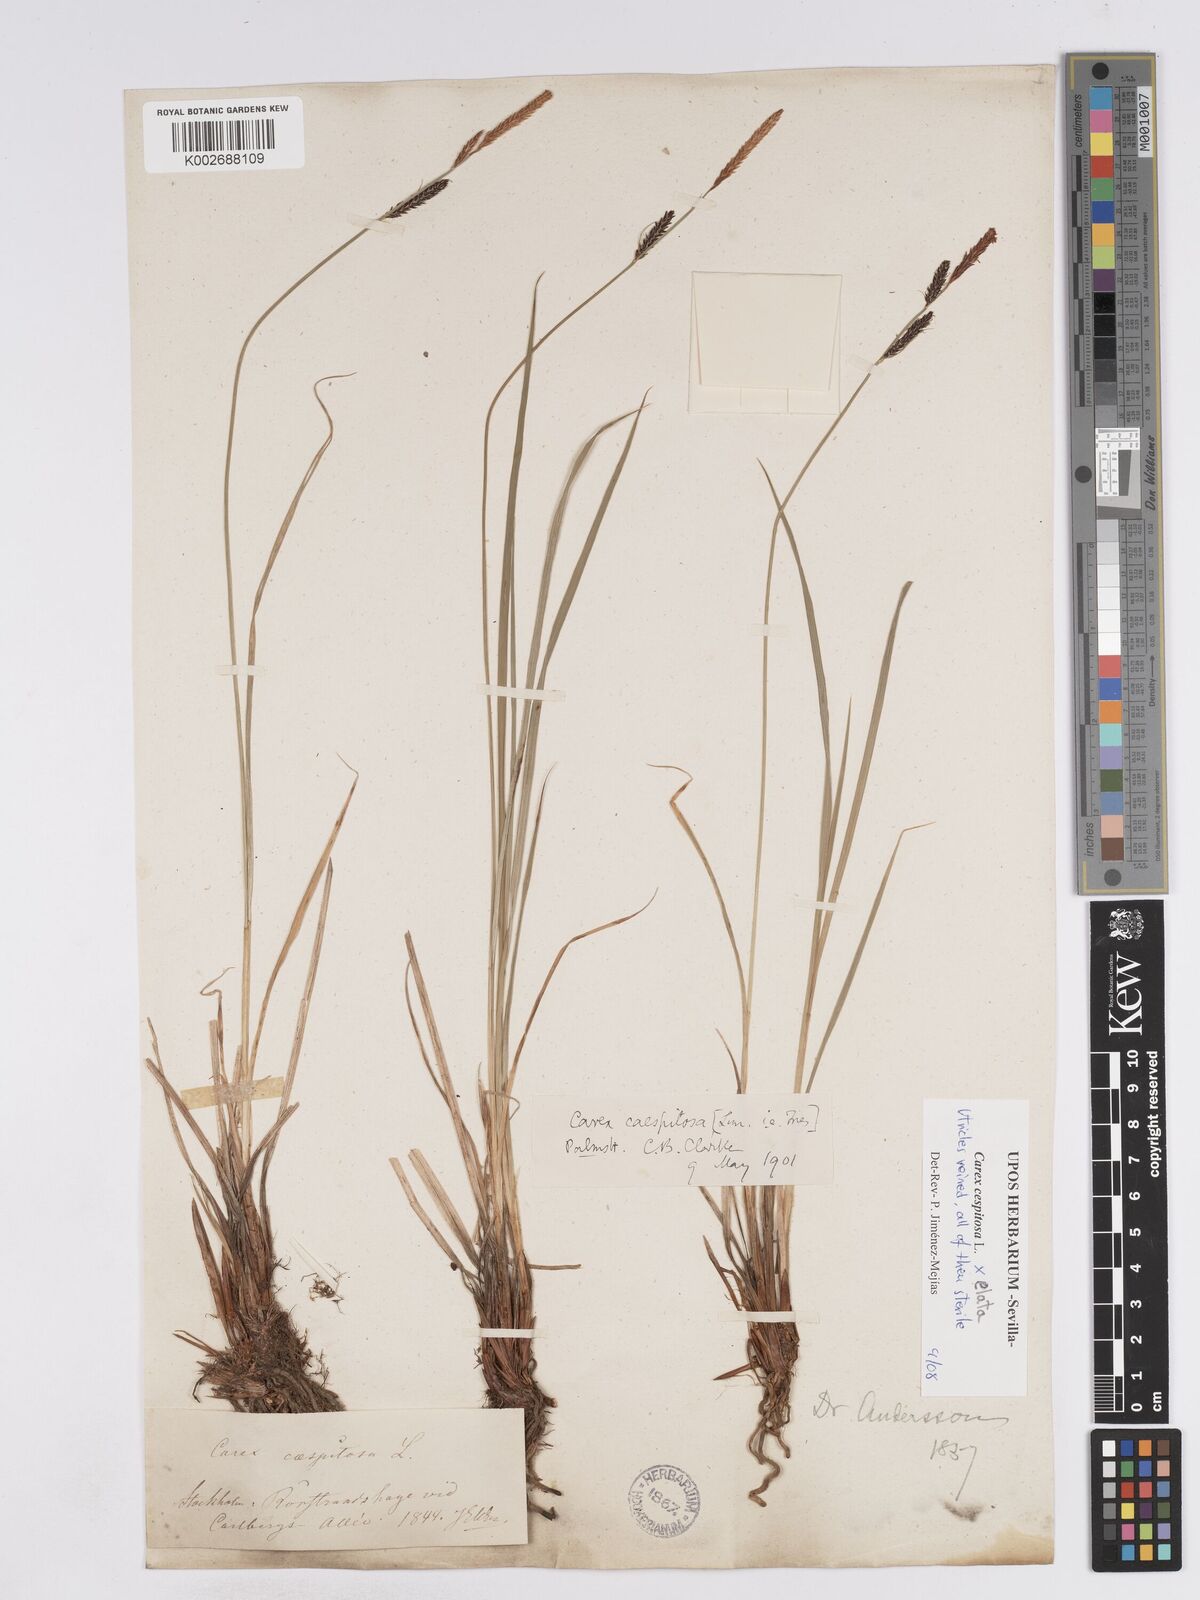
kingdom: Plantae
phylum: Tracheophyta
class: Liliopsida
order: Poales
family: Cyperaceae
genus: Carex
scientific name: Carex
